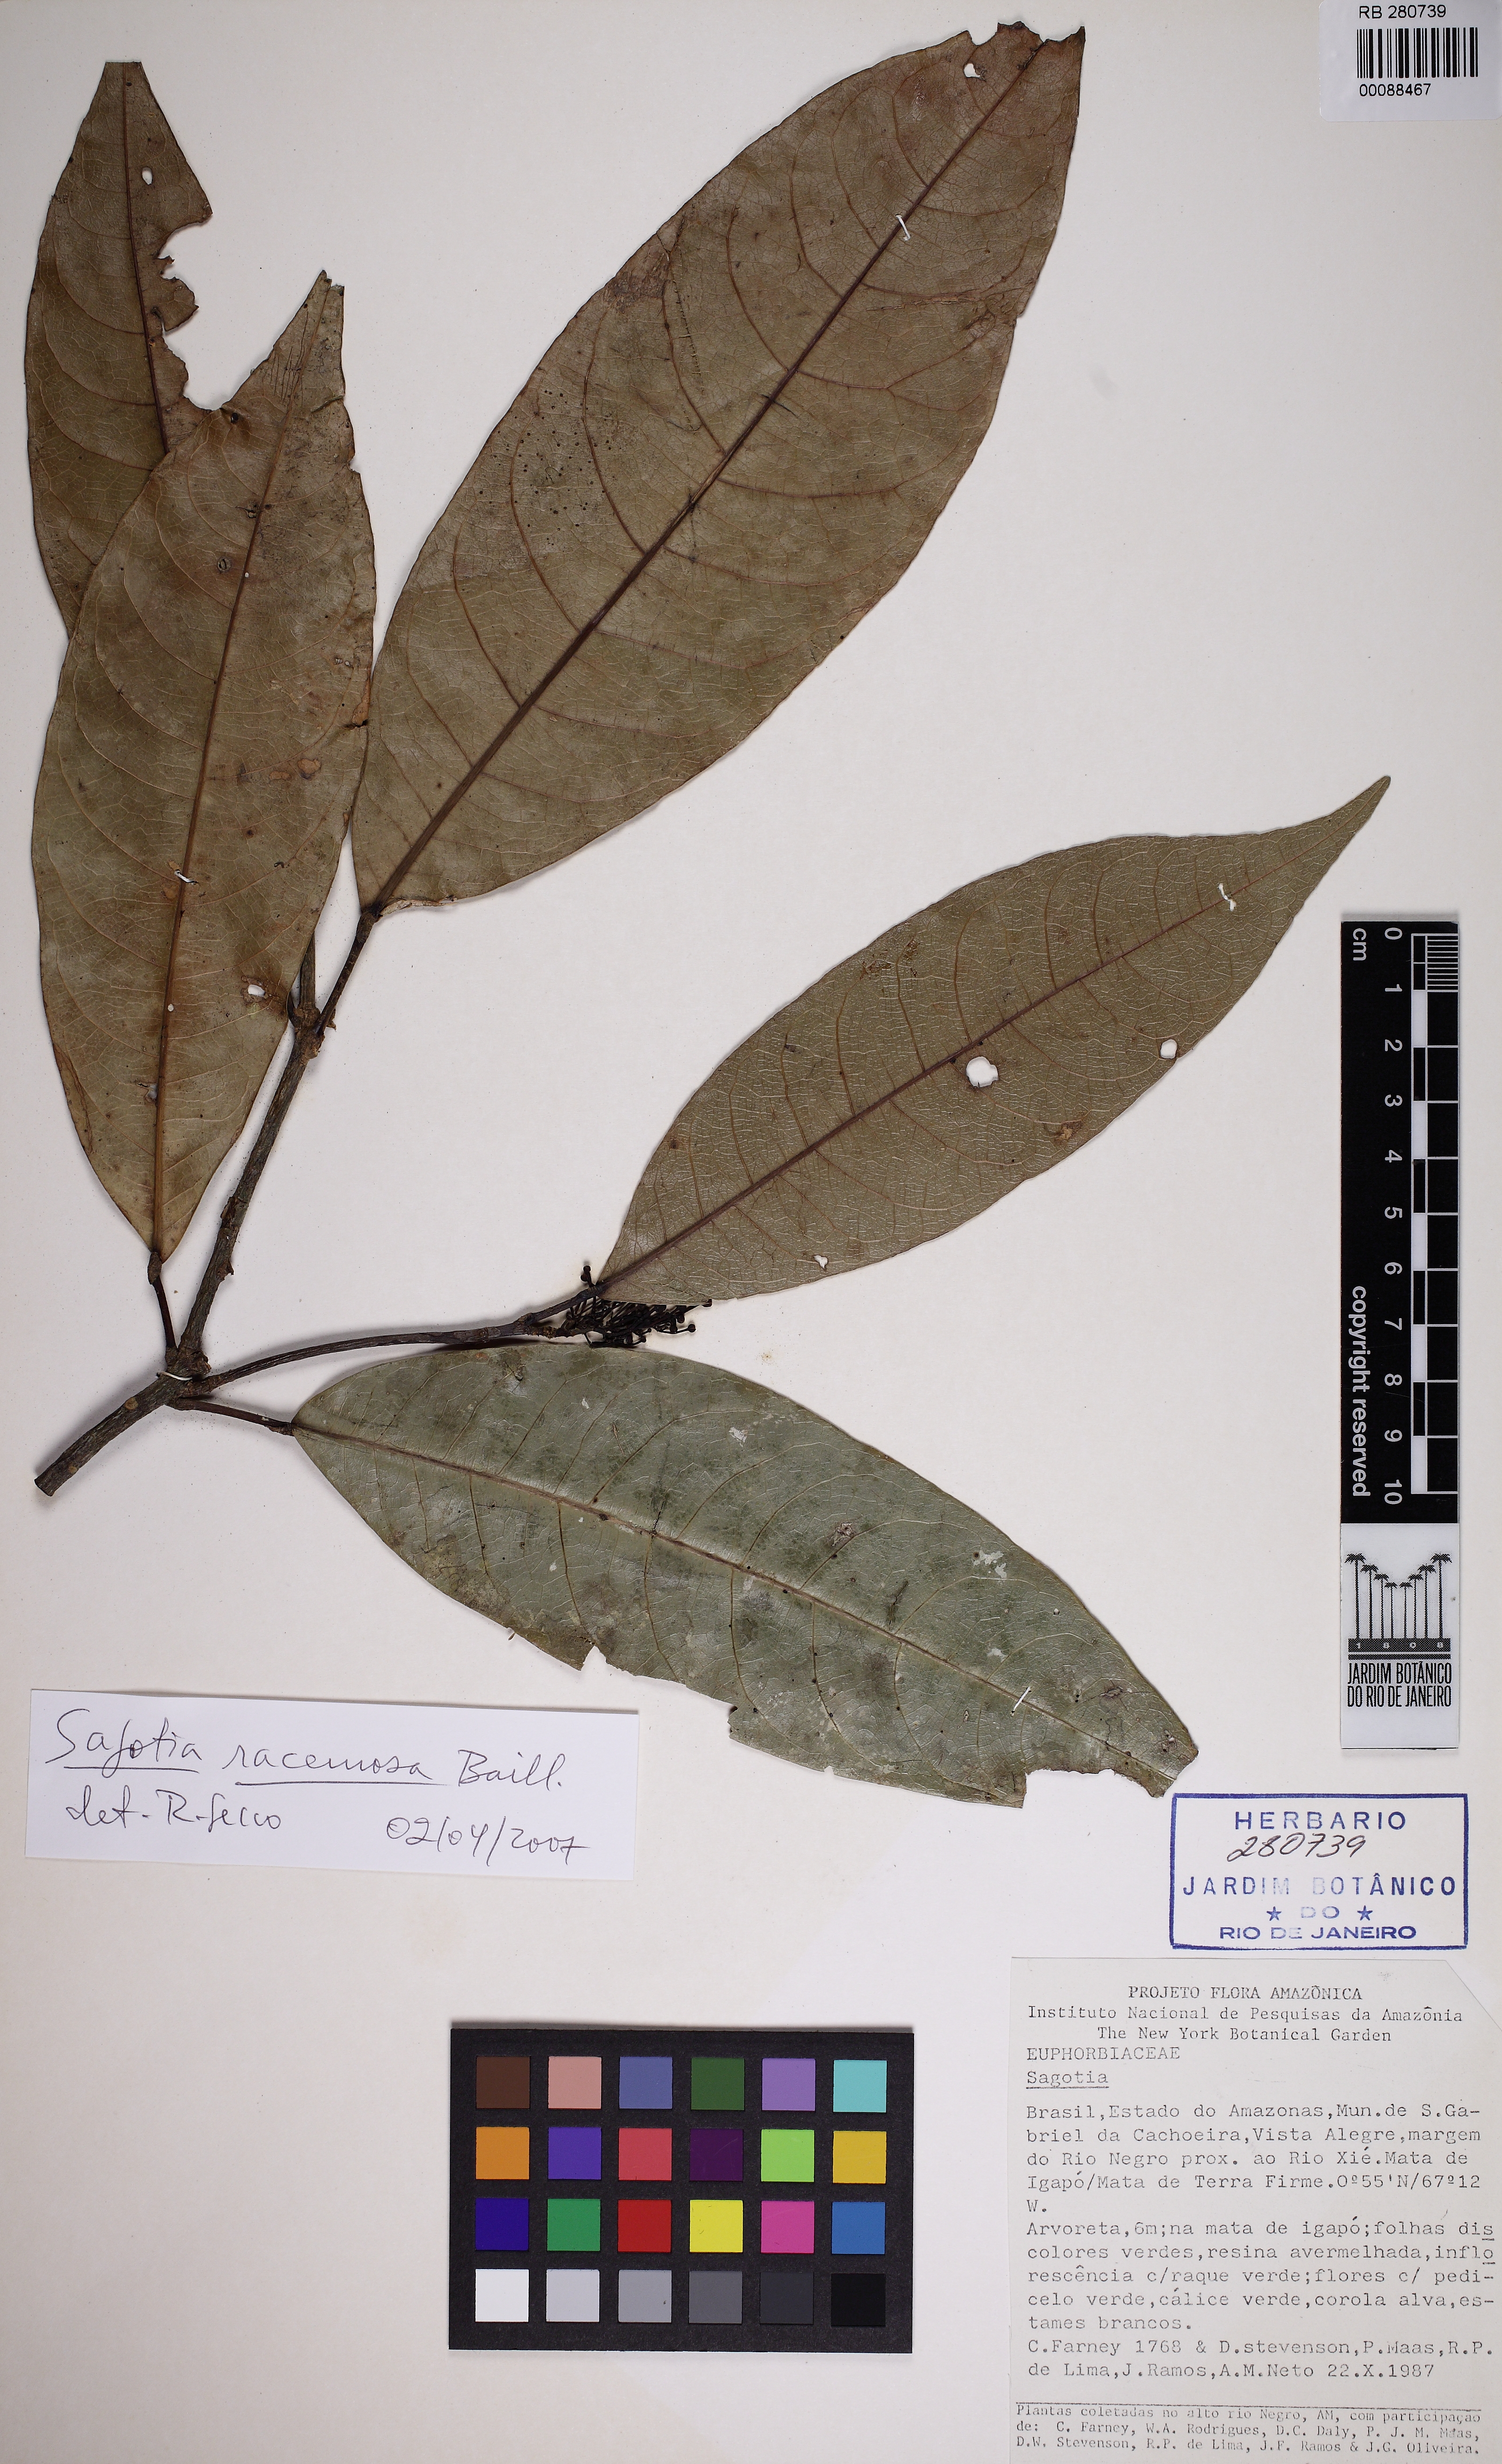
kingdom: Plantae
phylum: Tracheophyta
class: Magnoliopsida
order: Malpighiales
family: Euphorbiaceae
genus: Sagotia
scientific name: Sagotia racemosa
